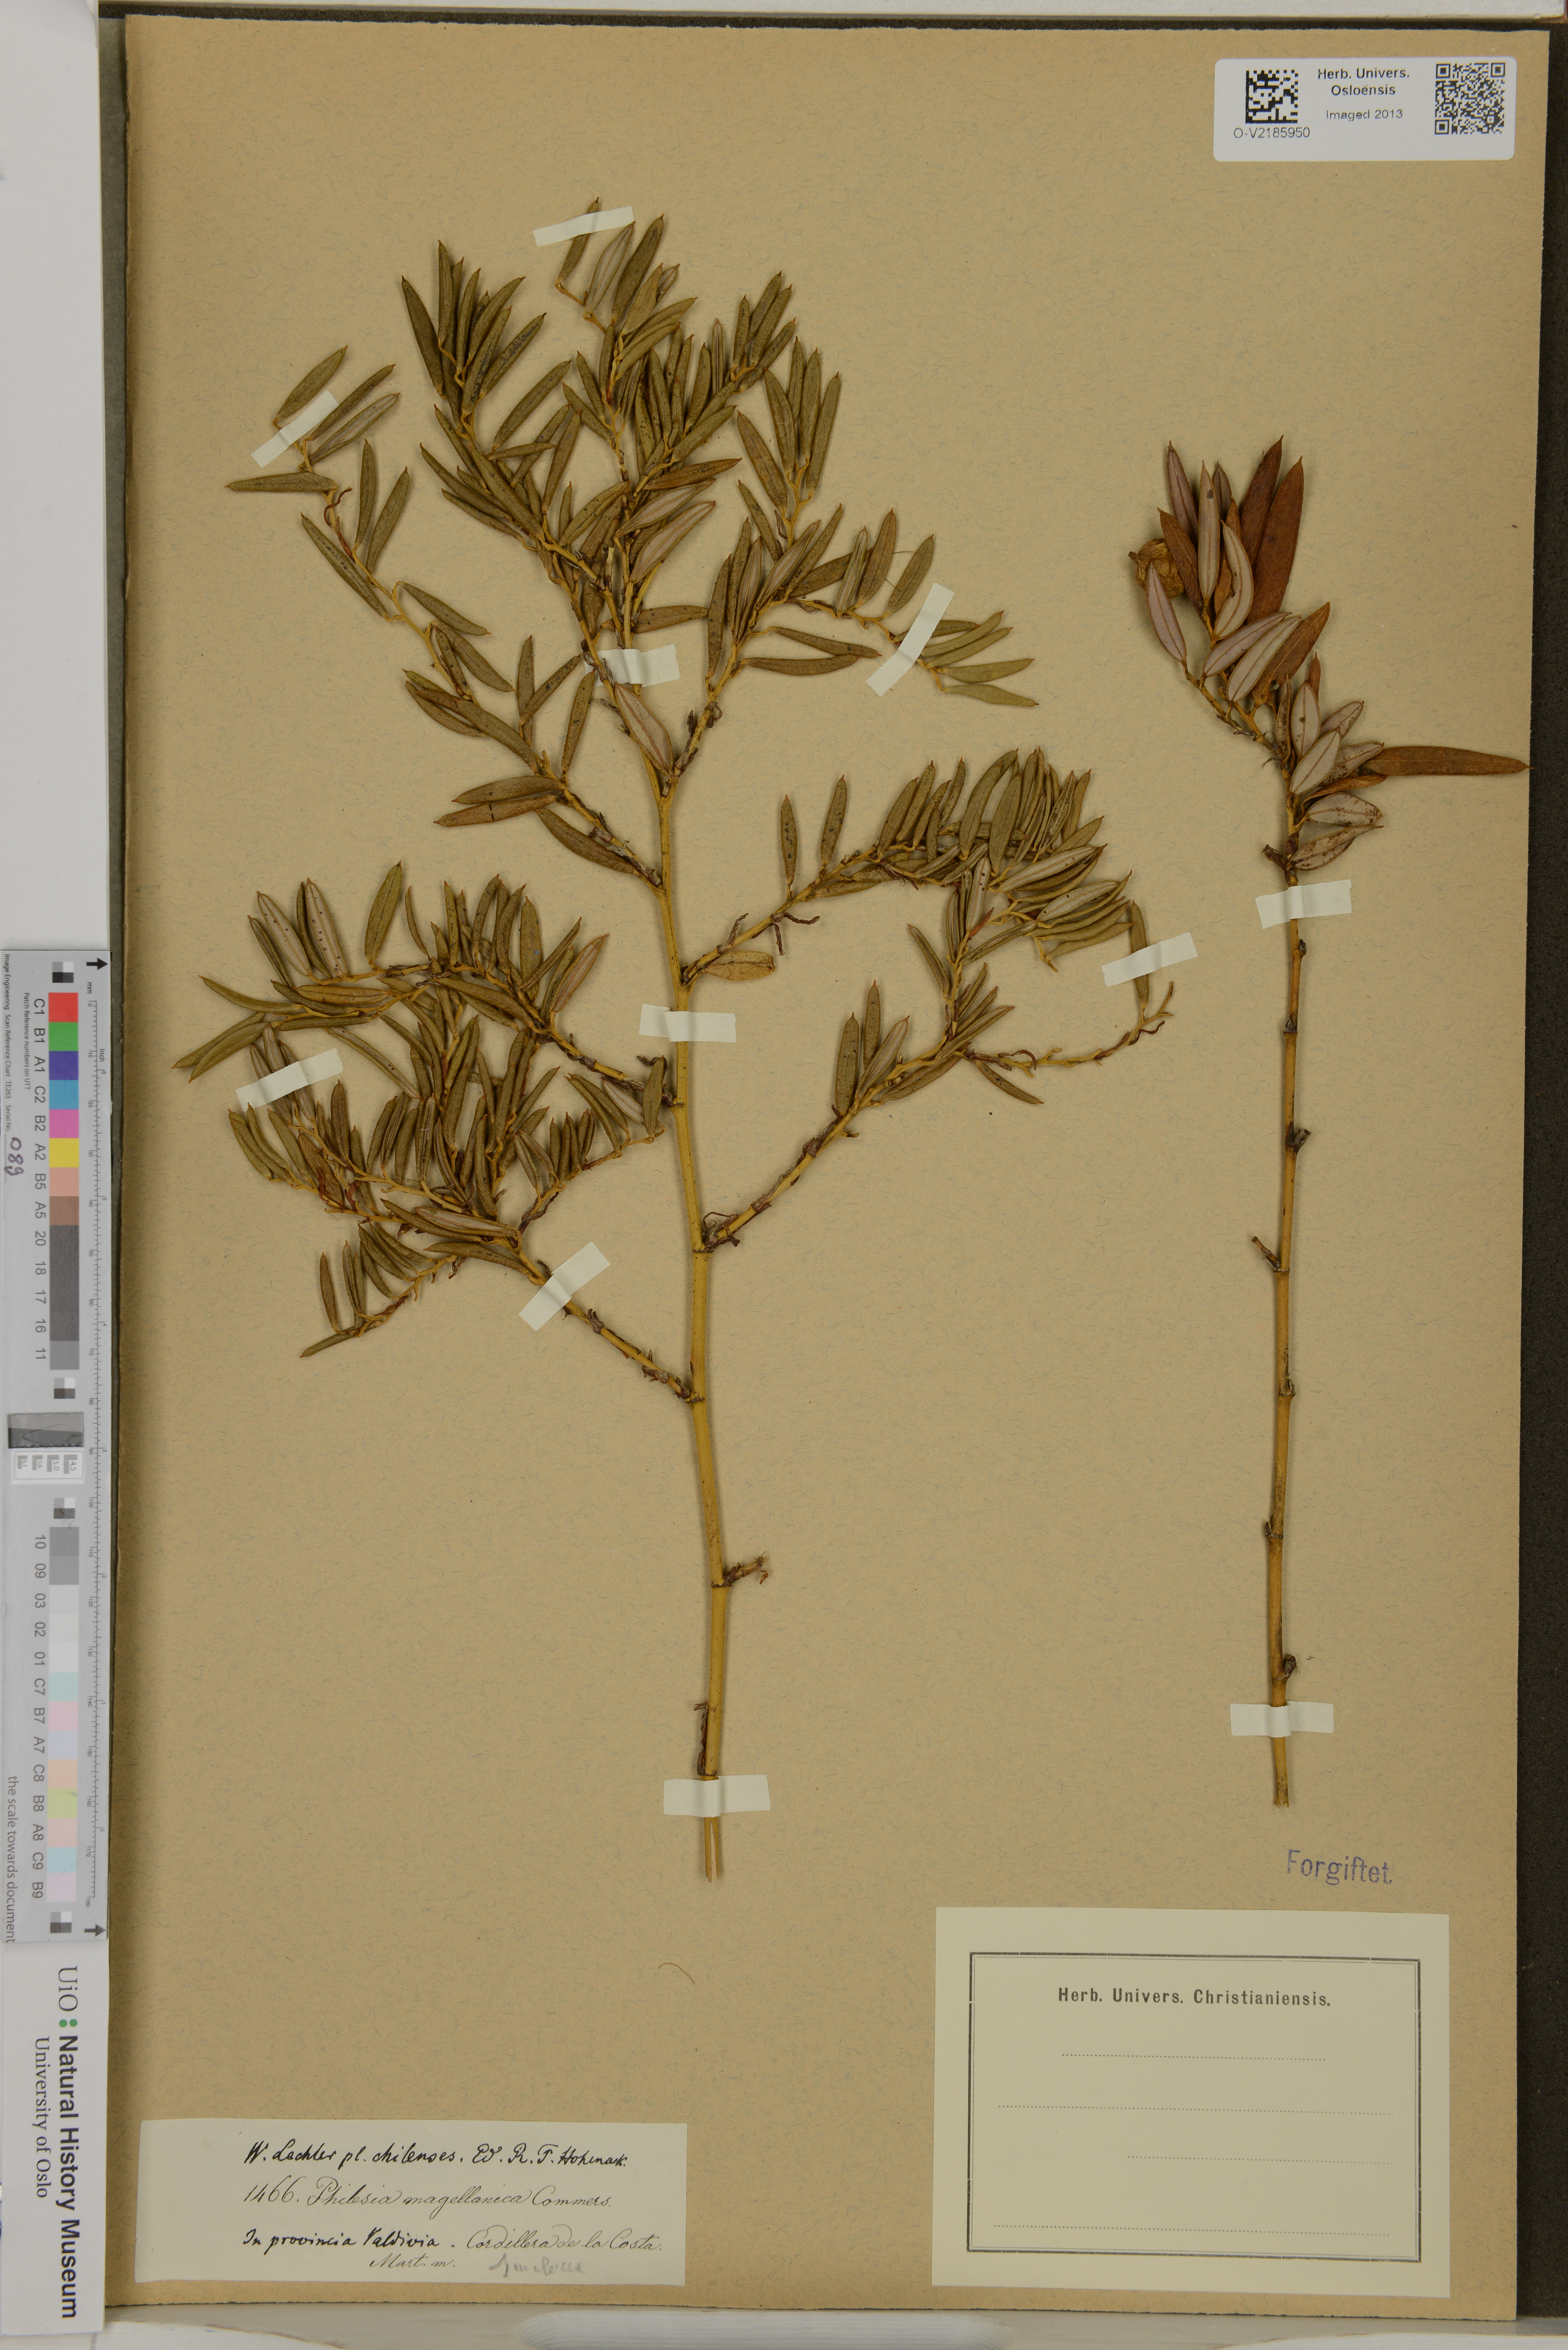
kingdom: Plantae
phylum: Tracheophyta
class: Liliopsida
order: Liliales
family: Philesiaceae
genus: Philesia
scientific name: Philesia magellanica
